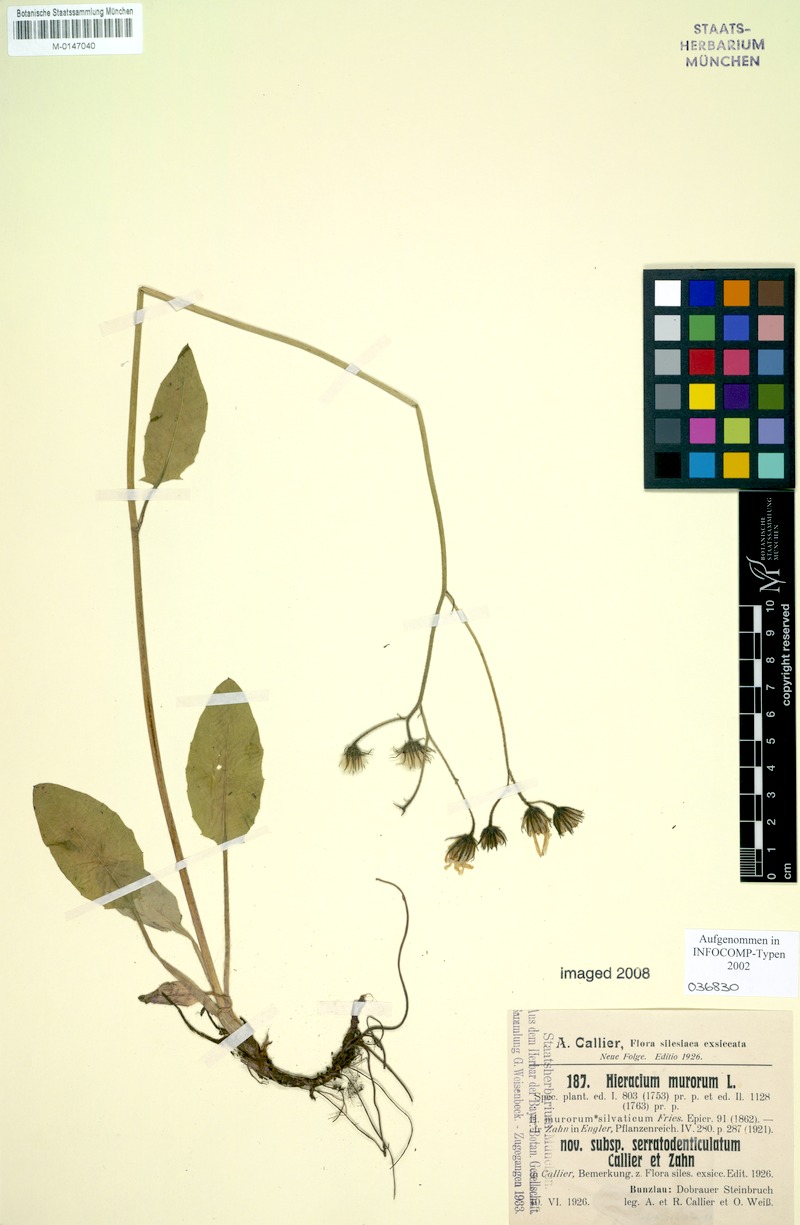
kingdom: Plantae
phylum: Tracheophyta
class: Magnoliopsida
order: Asterales
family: Asteraceae
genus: Hieracium
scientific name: Hieracium murorum
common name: Wall hawkweed
